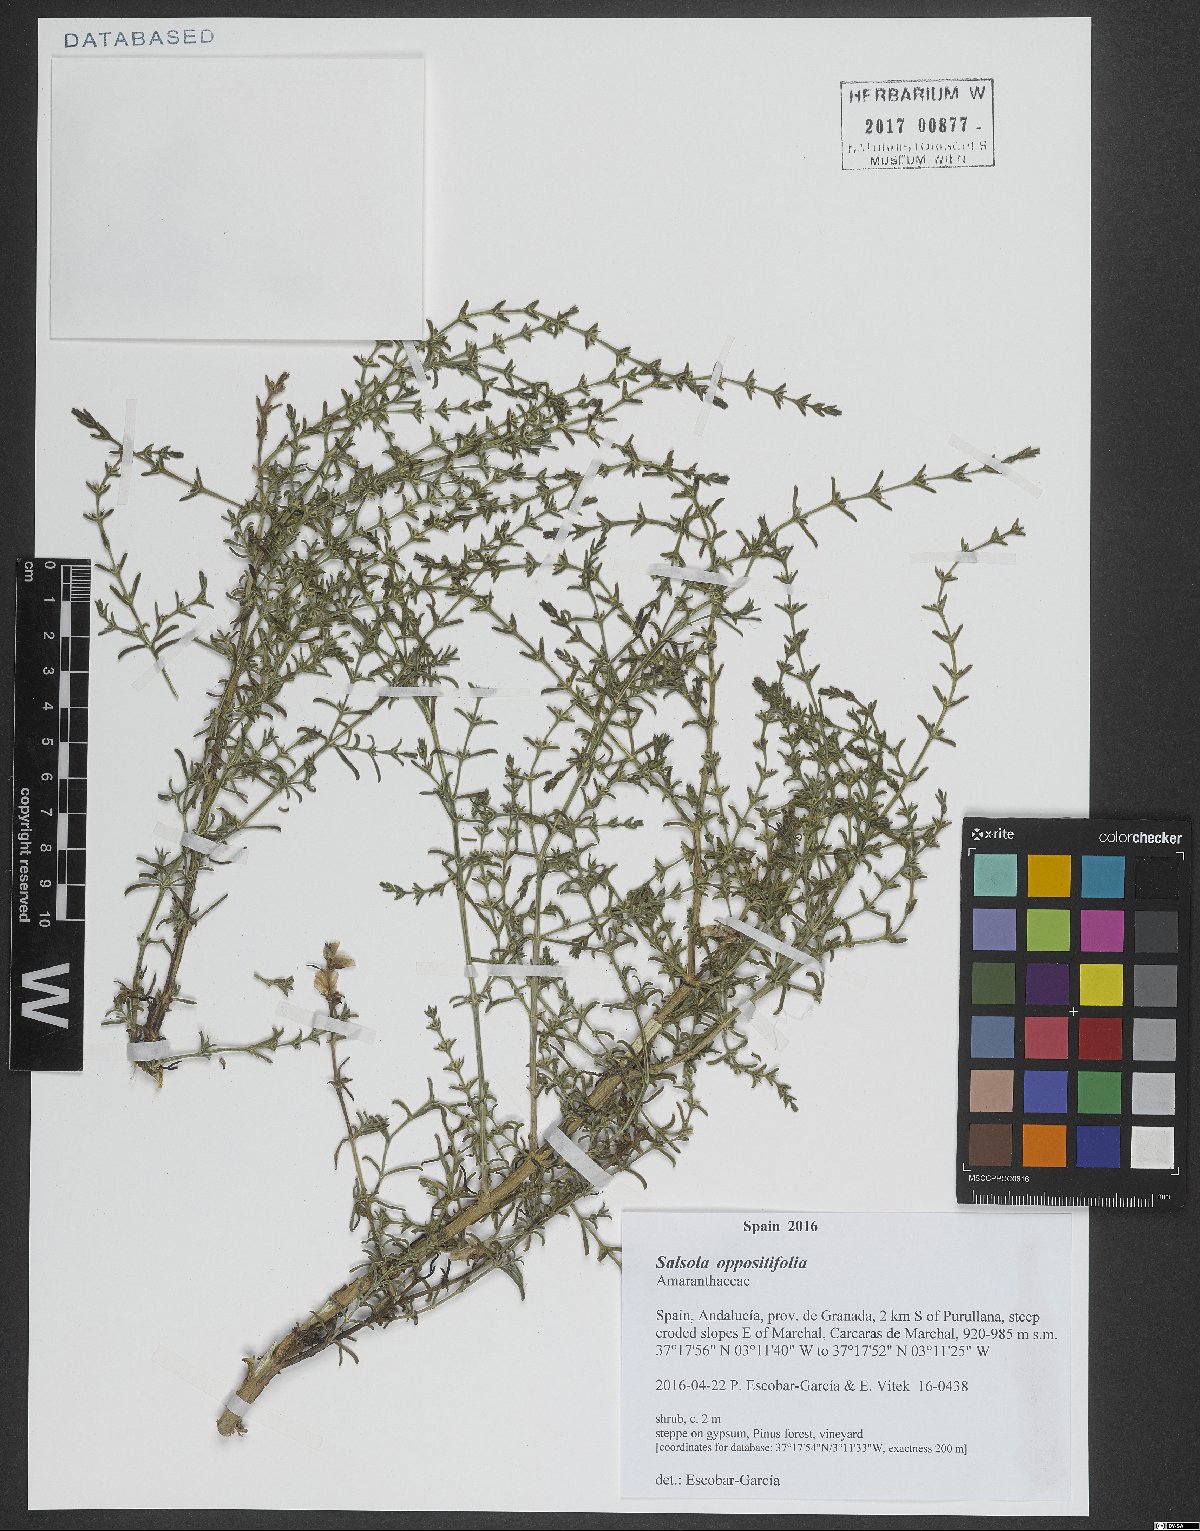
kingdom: Plantae
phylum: Tracheophyta
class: Magnoliopsida
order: Caryophyllales
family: Amaranthaceae
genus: Soda
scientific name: Soda oppositifolia
